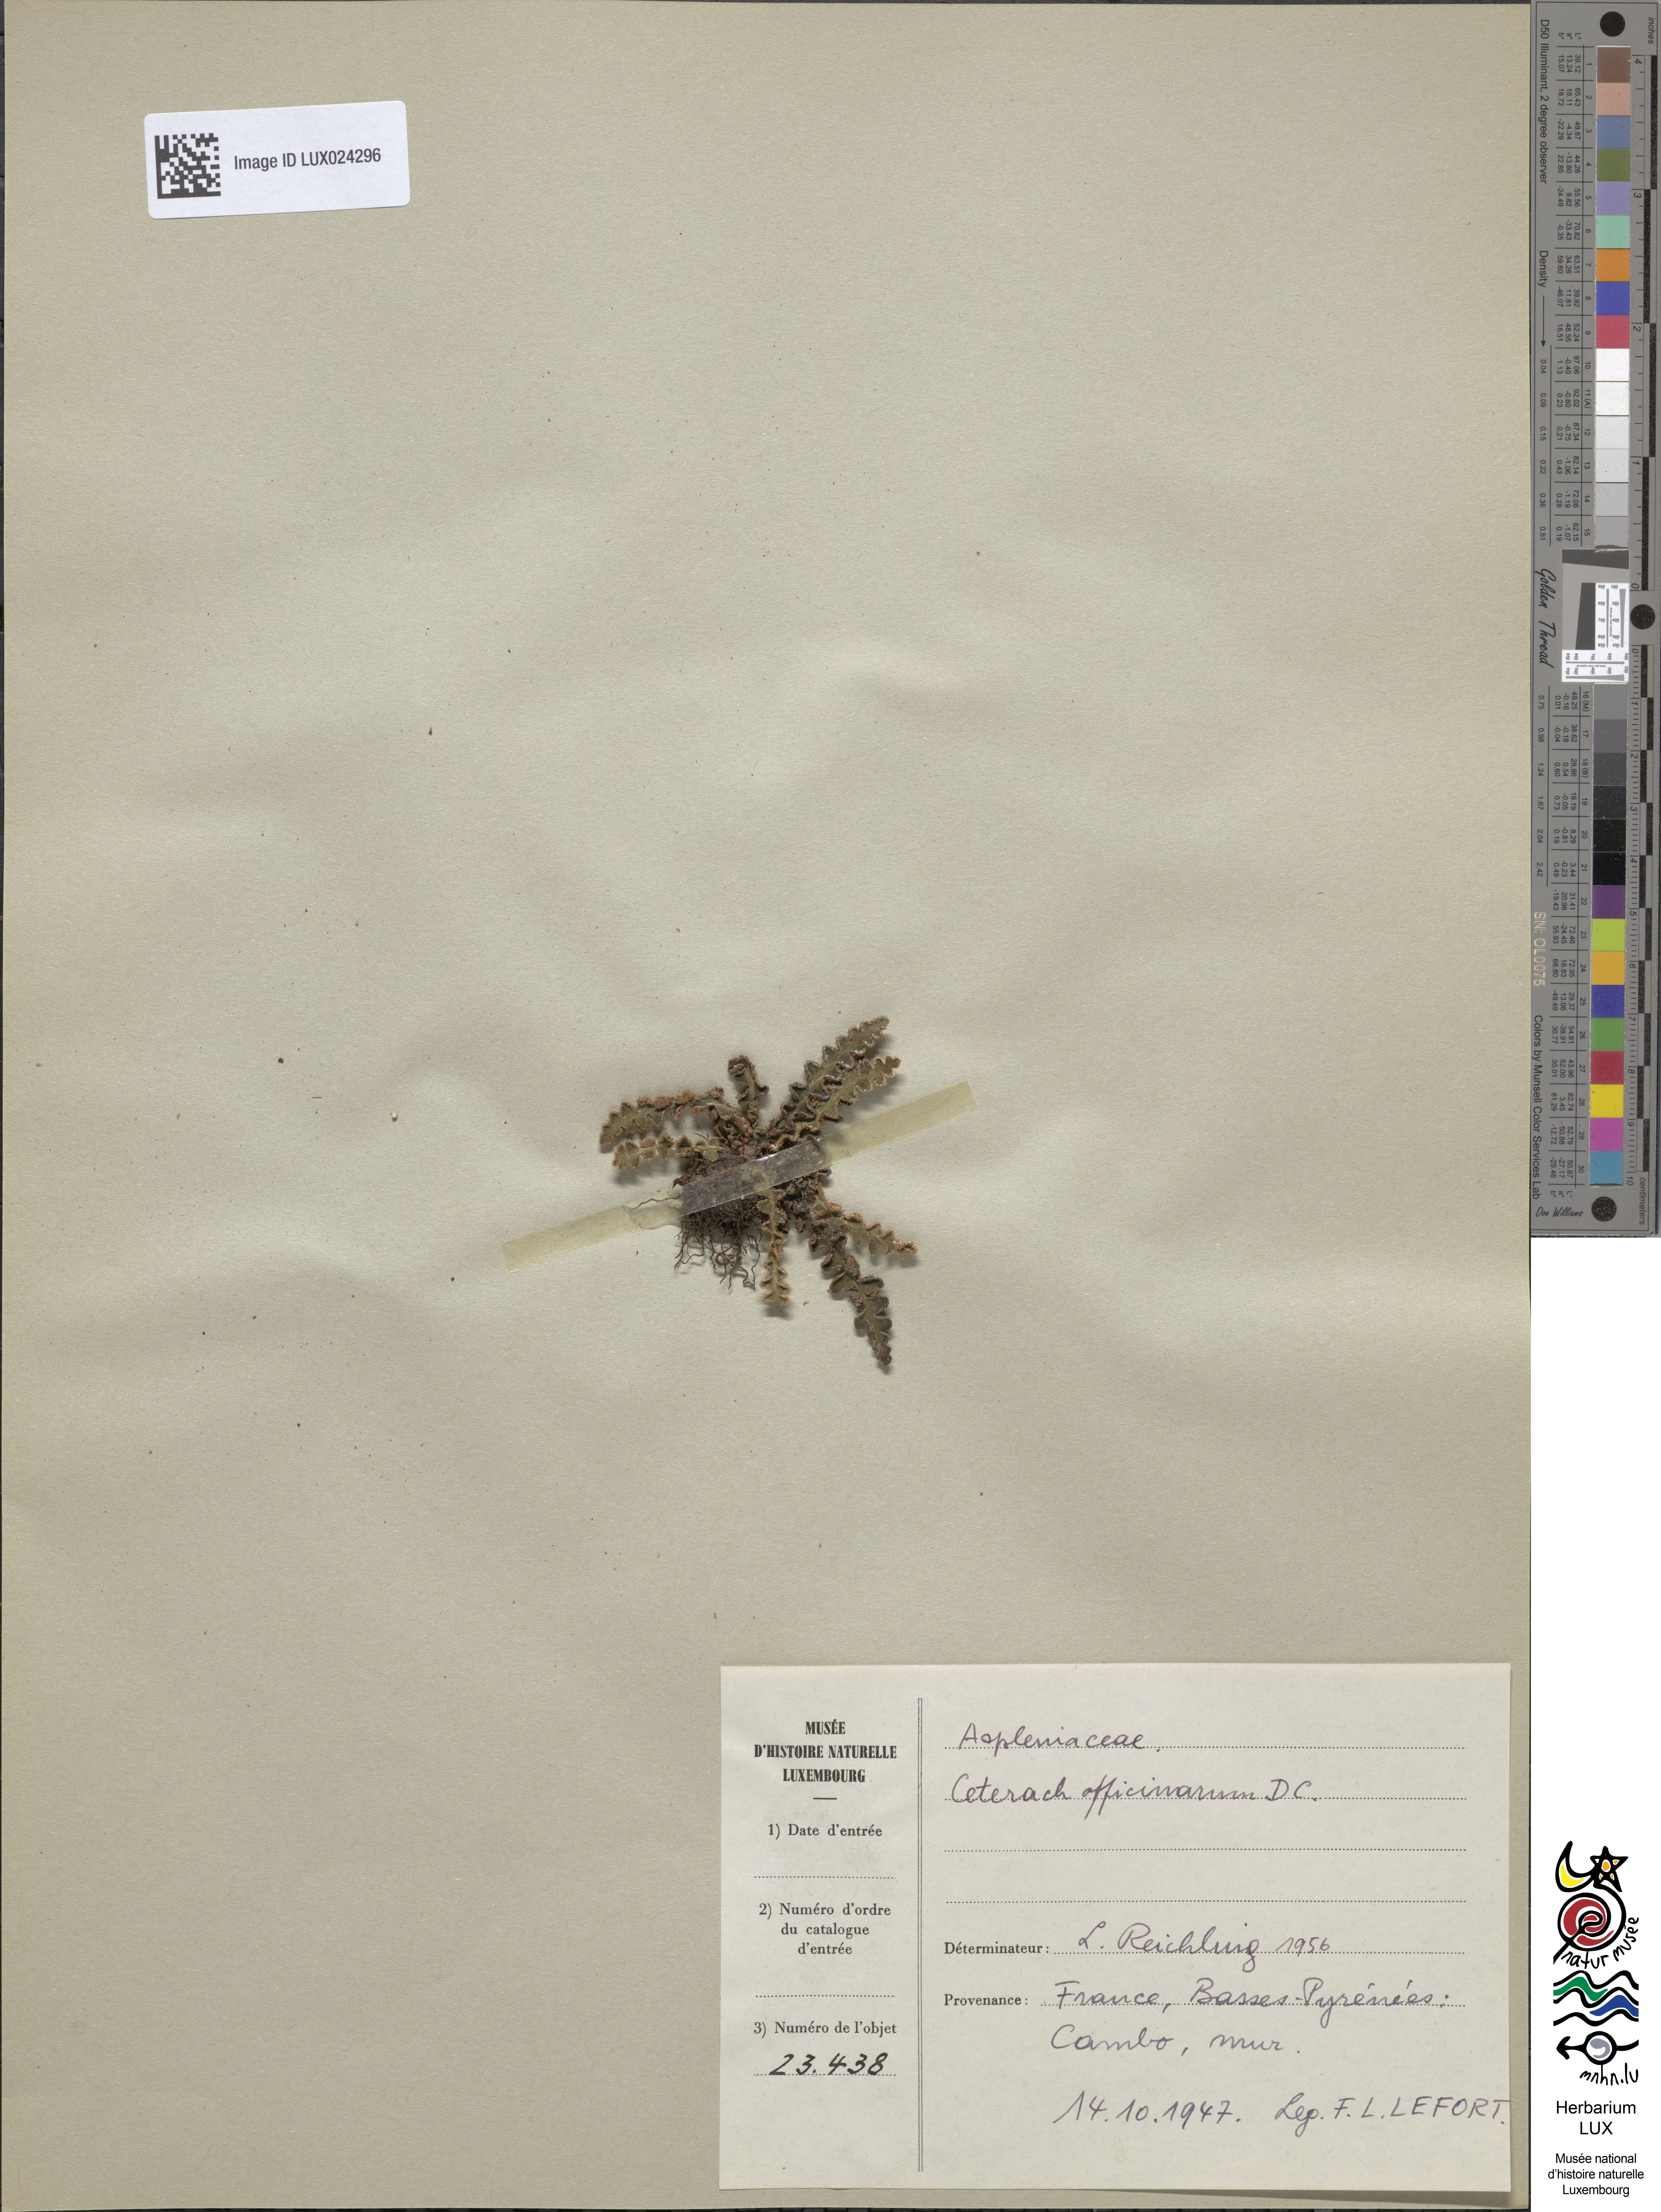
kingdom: Plantae
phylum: Tracheophyta
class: Polypodiopsida
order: Polypodiales
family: Aspleniaceae
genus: Asplenium
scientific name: Asplenium ceterach
